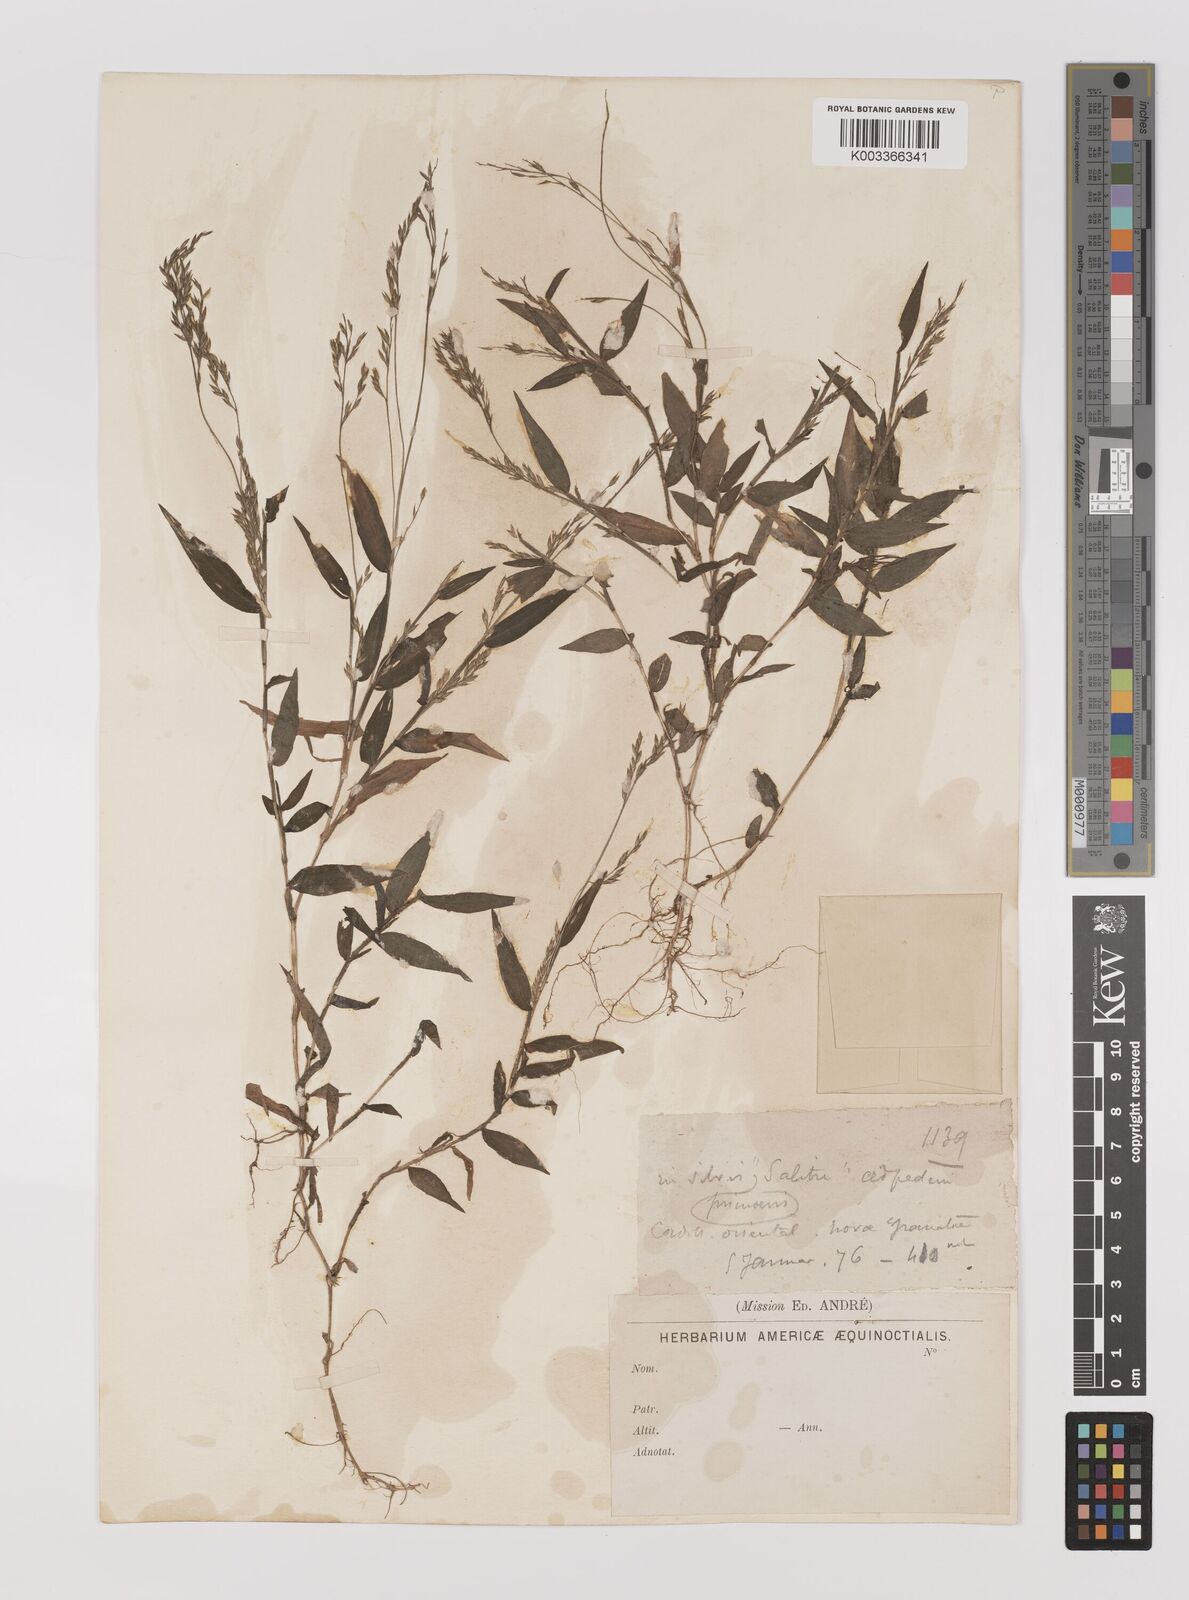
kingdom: Plantae
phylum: Tracheophyta
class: Liliopsida
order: Poales
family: Poaceae
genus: Ichnanthus
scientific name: Ichnanthus tenuis
